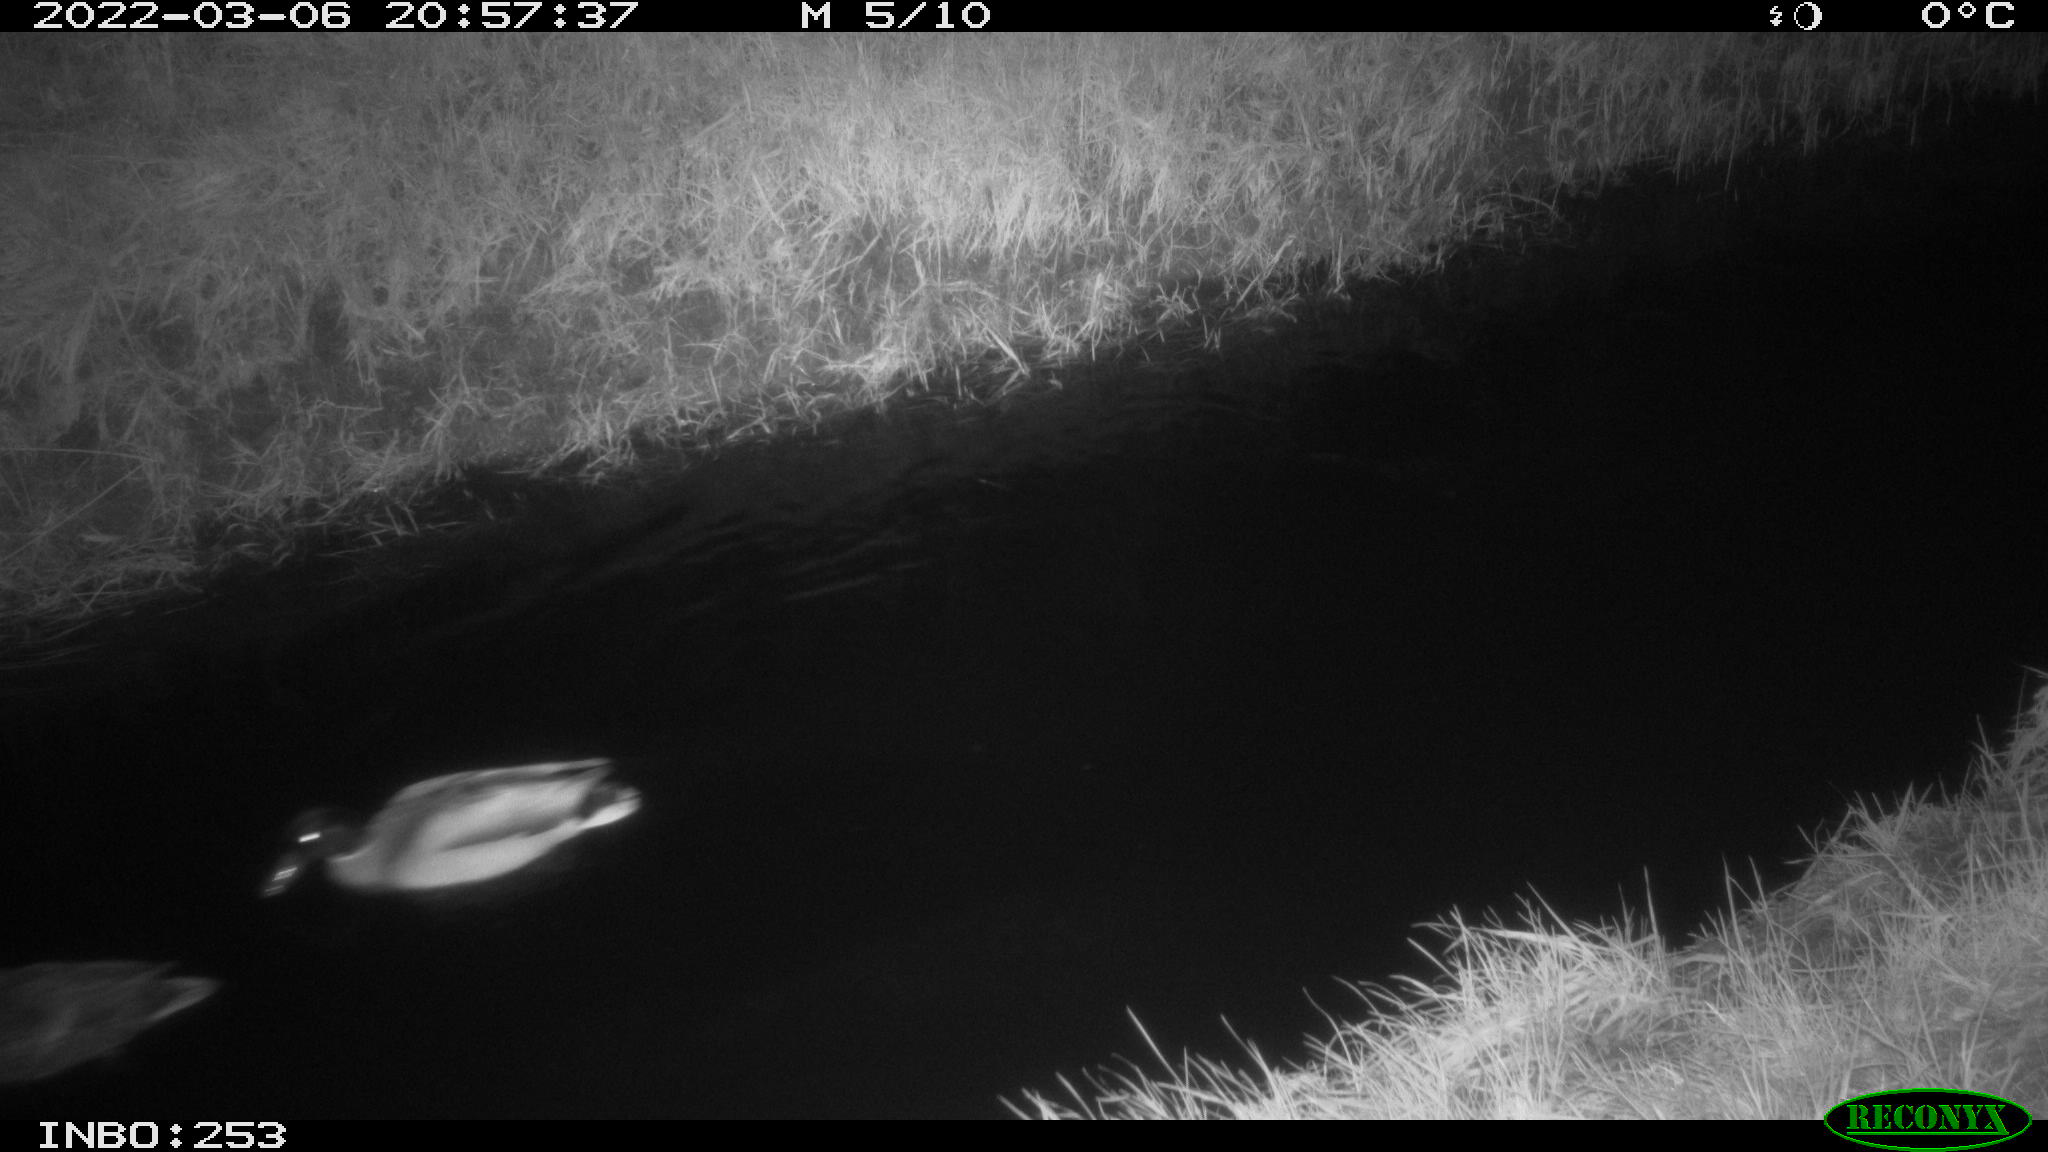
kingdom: Animalia
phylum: Chordata
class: Aves
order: Anseriformes
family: Anatidae
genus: Anas
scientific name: Anas platyrhynchos
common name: Mallard
